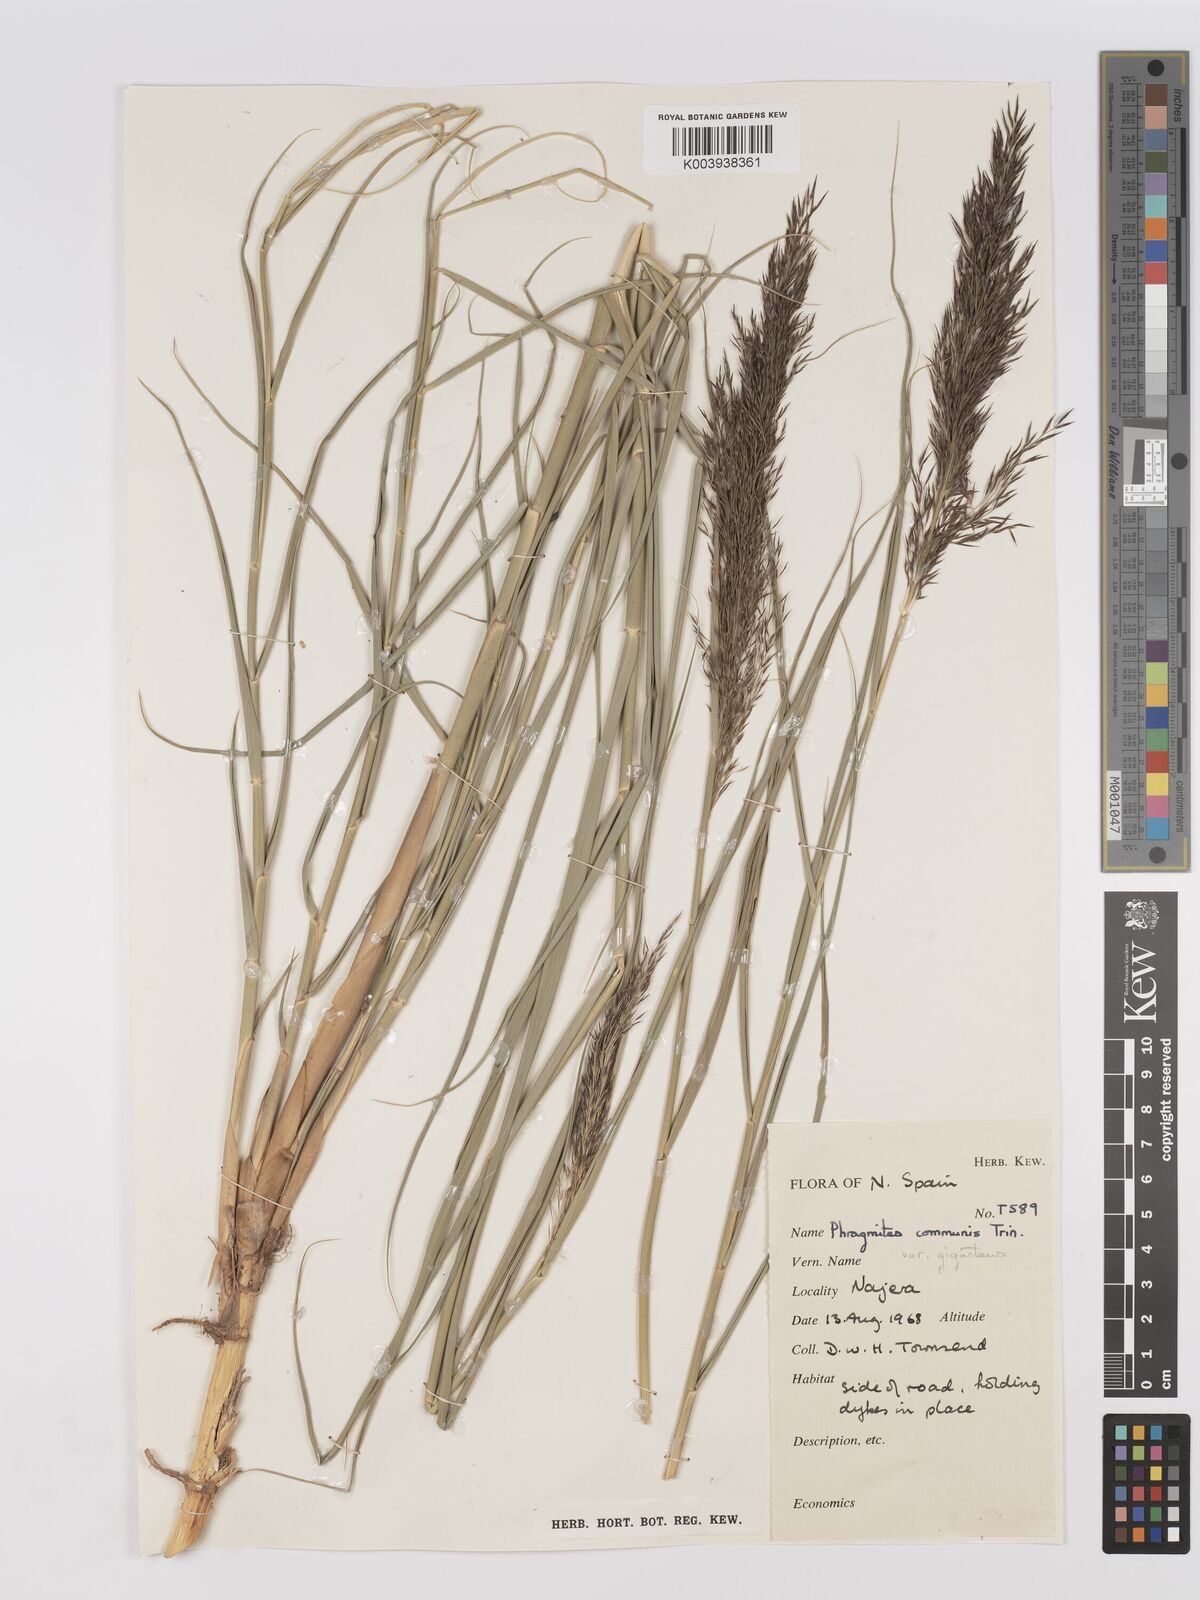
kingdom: Plantae
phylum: Tracheophyta
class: Liliopsida
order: Poales
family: Poaceae
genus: Phragmites
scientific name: Phragmites australis
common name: Common reed
